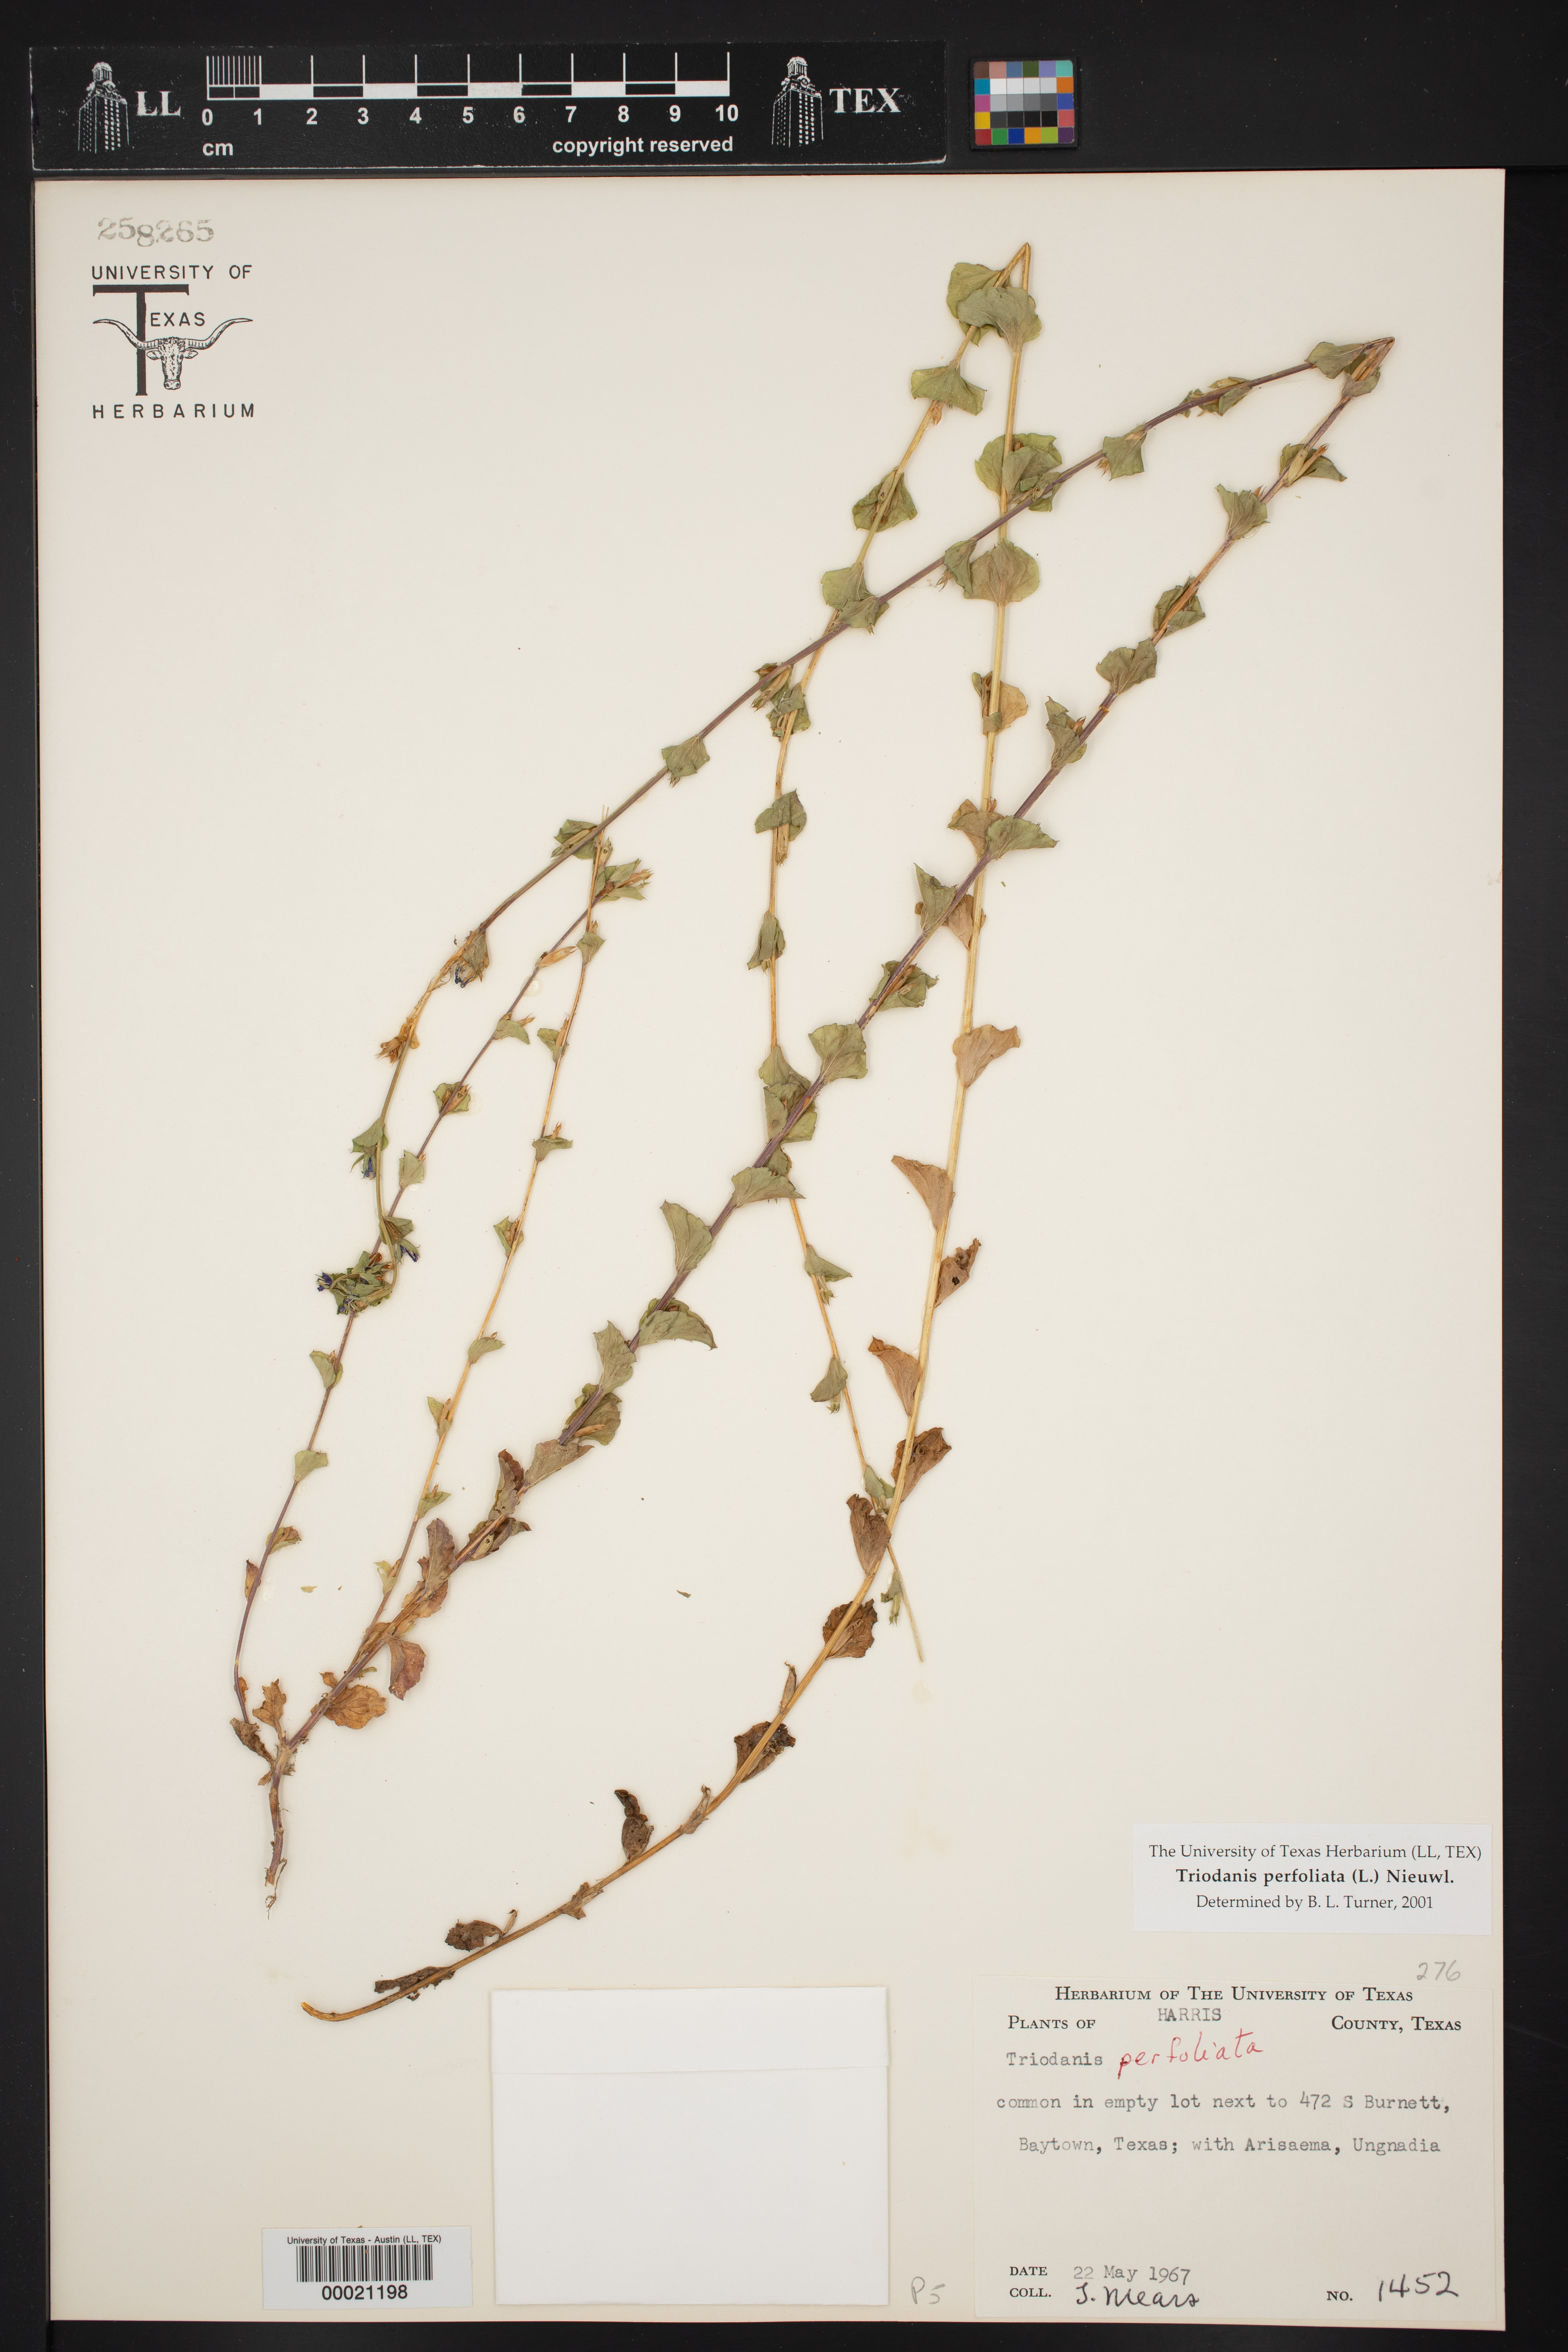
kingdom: Plantae
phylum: Tracheophyta
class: Magnoliopsida
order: Asterales
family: Campanulaceae
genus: Triodanis
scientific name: Triodanis perfoliata
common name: Clasping venus' looking-glass
